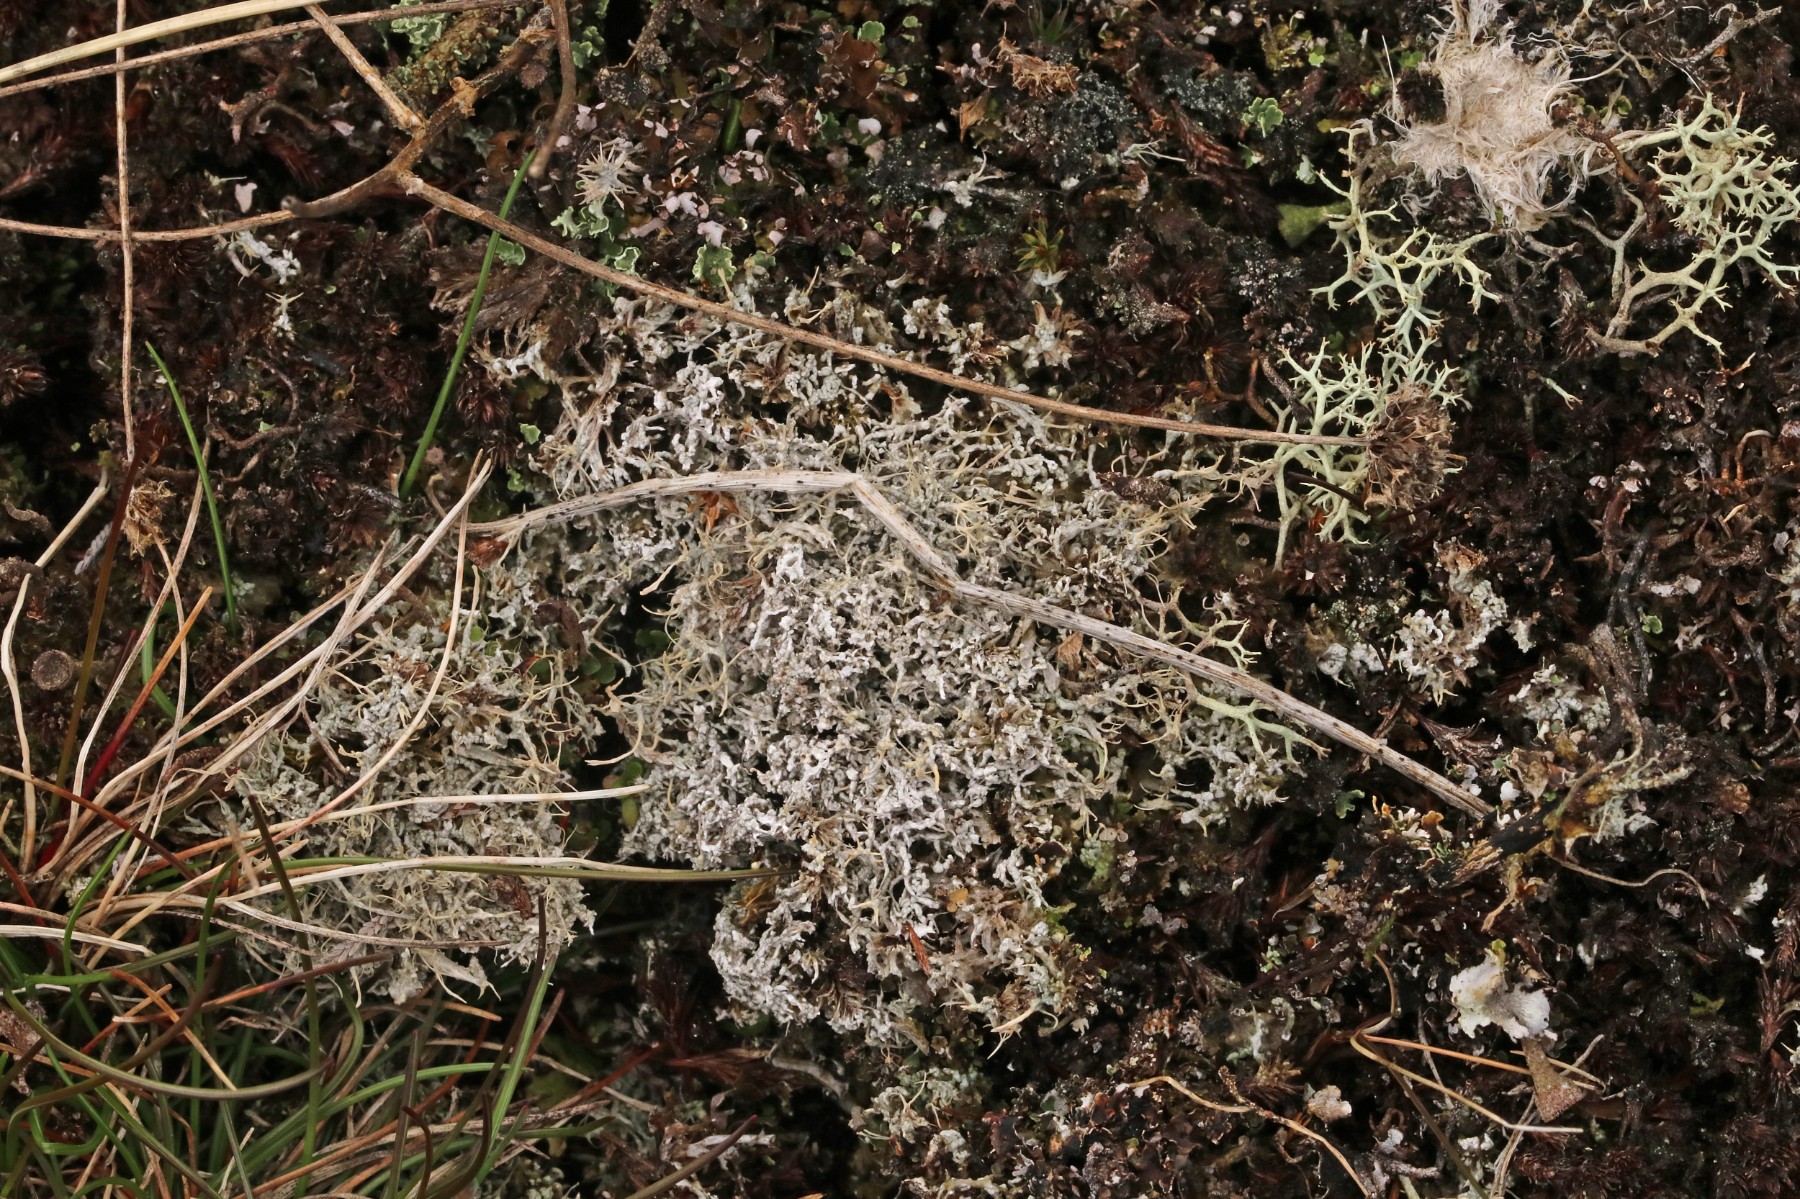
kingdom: Fungi
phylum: Ascomycota
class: Lecanoromycetes
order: Pertusariales
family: Ochrolechiaceae
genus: Ochrolechia
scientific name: Ochrolechia frigida
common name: fjeld-blegskivelav
